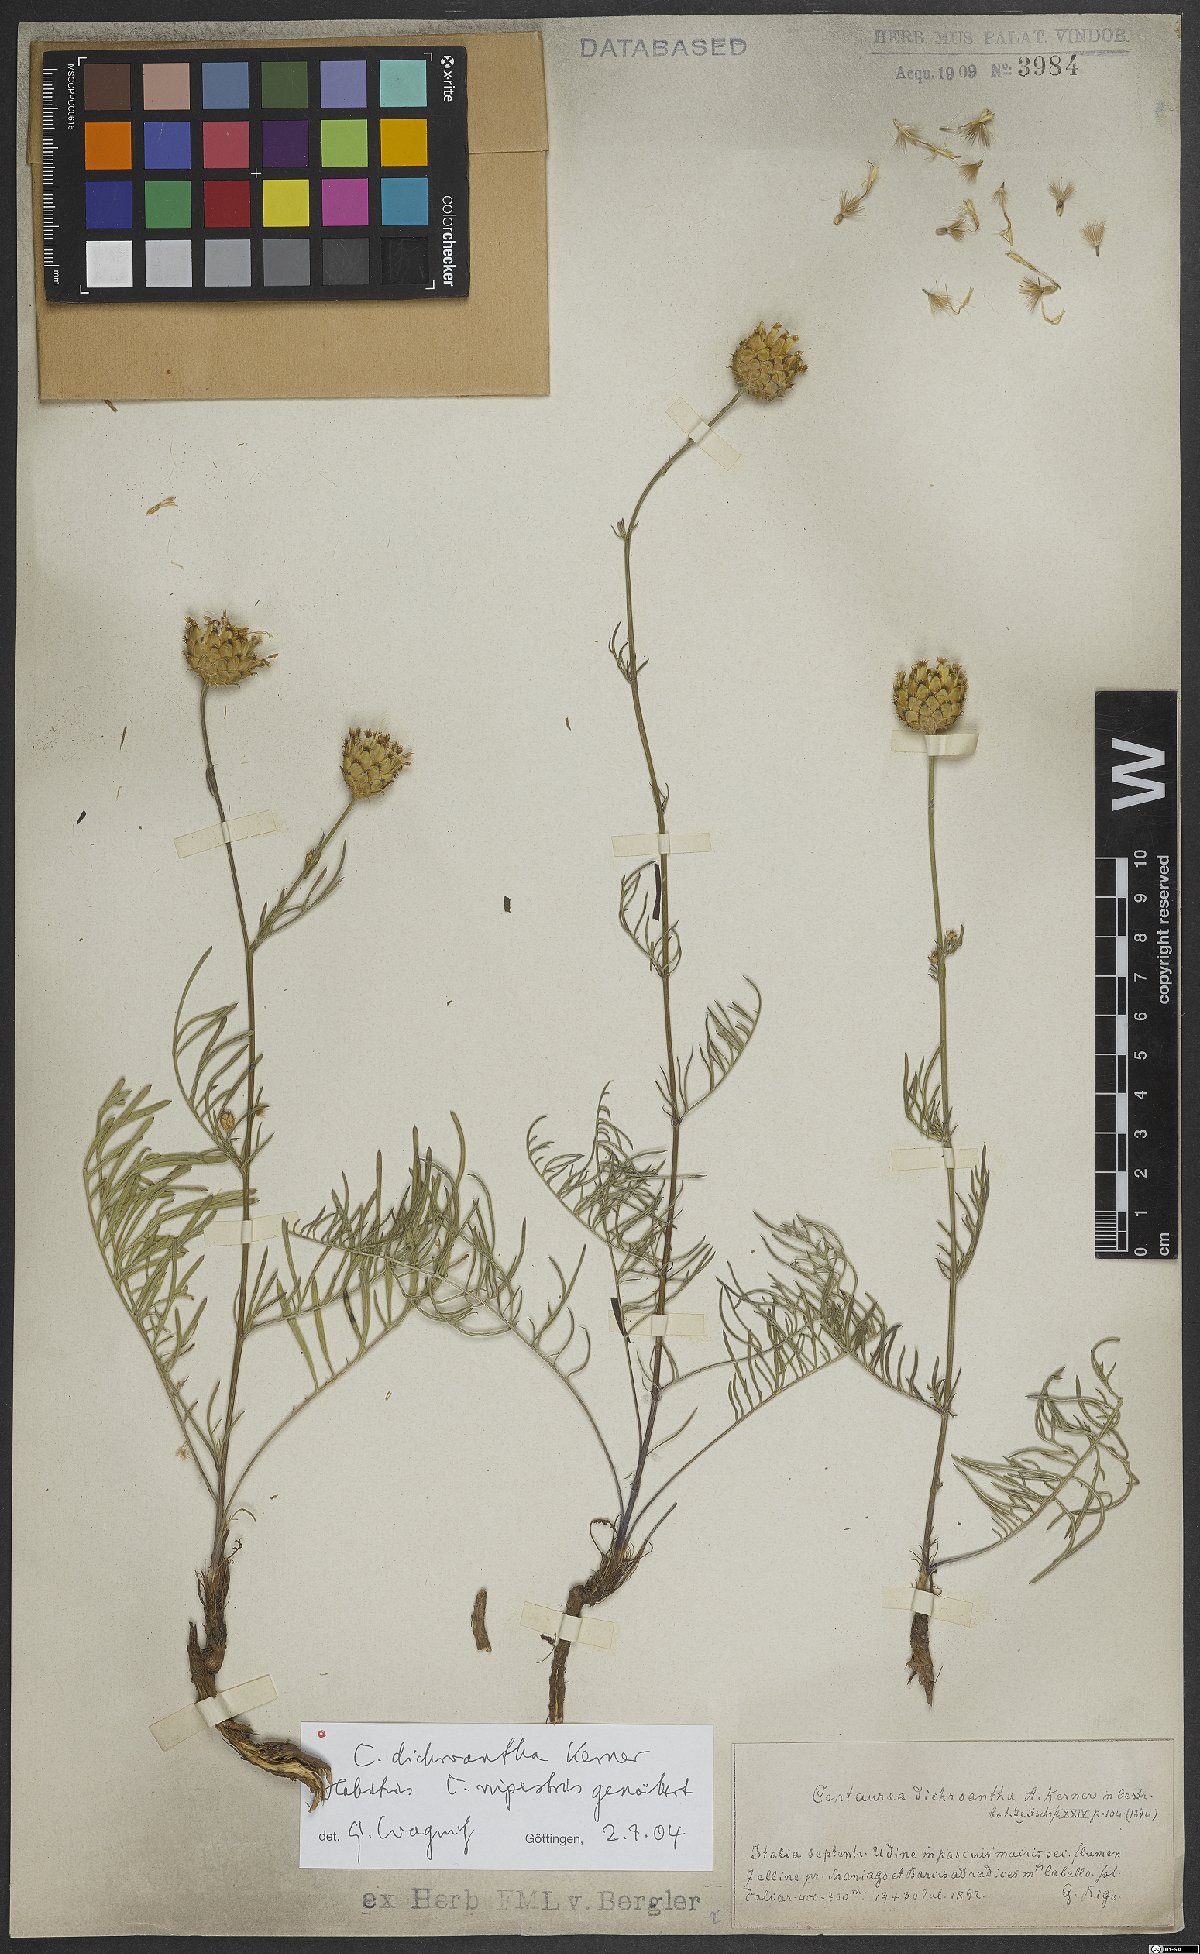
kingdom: Plantae
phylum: Tracheophyta
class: Magnoliopsida
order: Asterales
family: Asteraceae
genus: Centaurea
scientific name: Centaurea dichroantha
